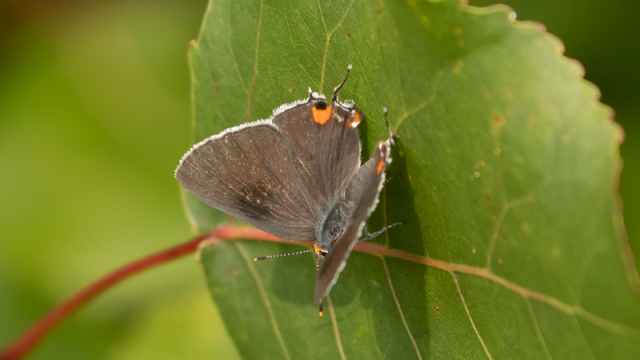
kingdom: Animalia
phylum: Arthropoda
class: Insecta
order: Lepidoptera
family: Lycaenidae
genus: Strymon
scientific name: Strymon melinus
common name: Gray Hairstreak
